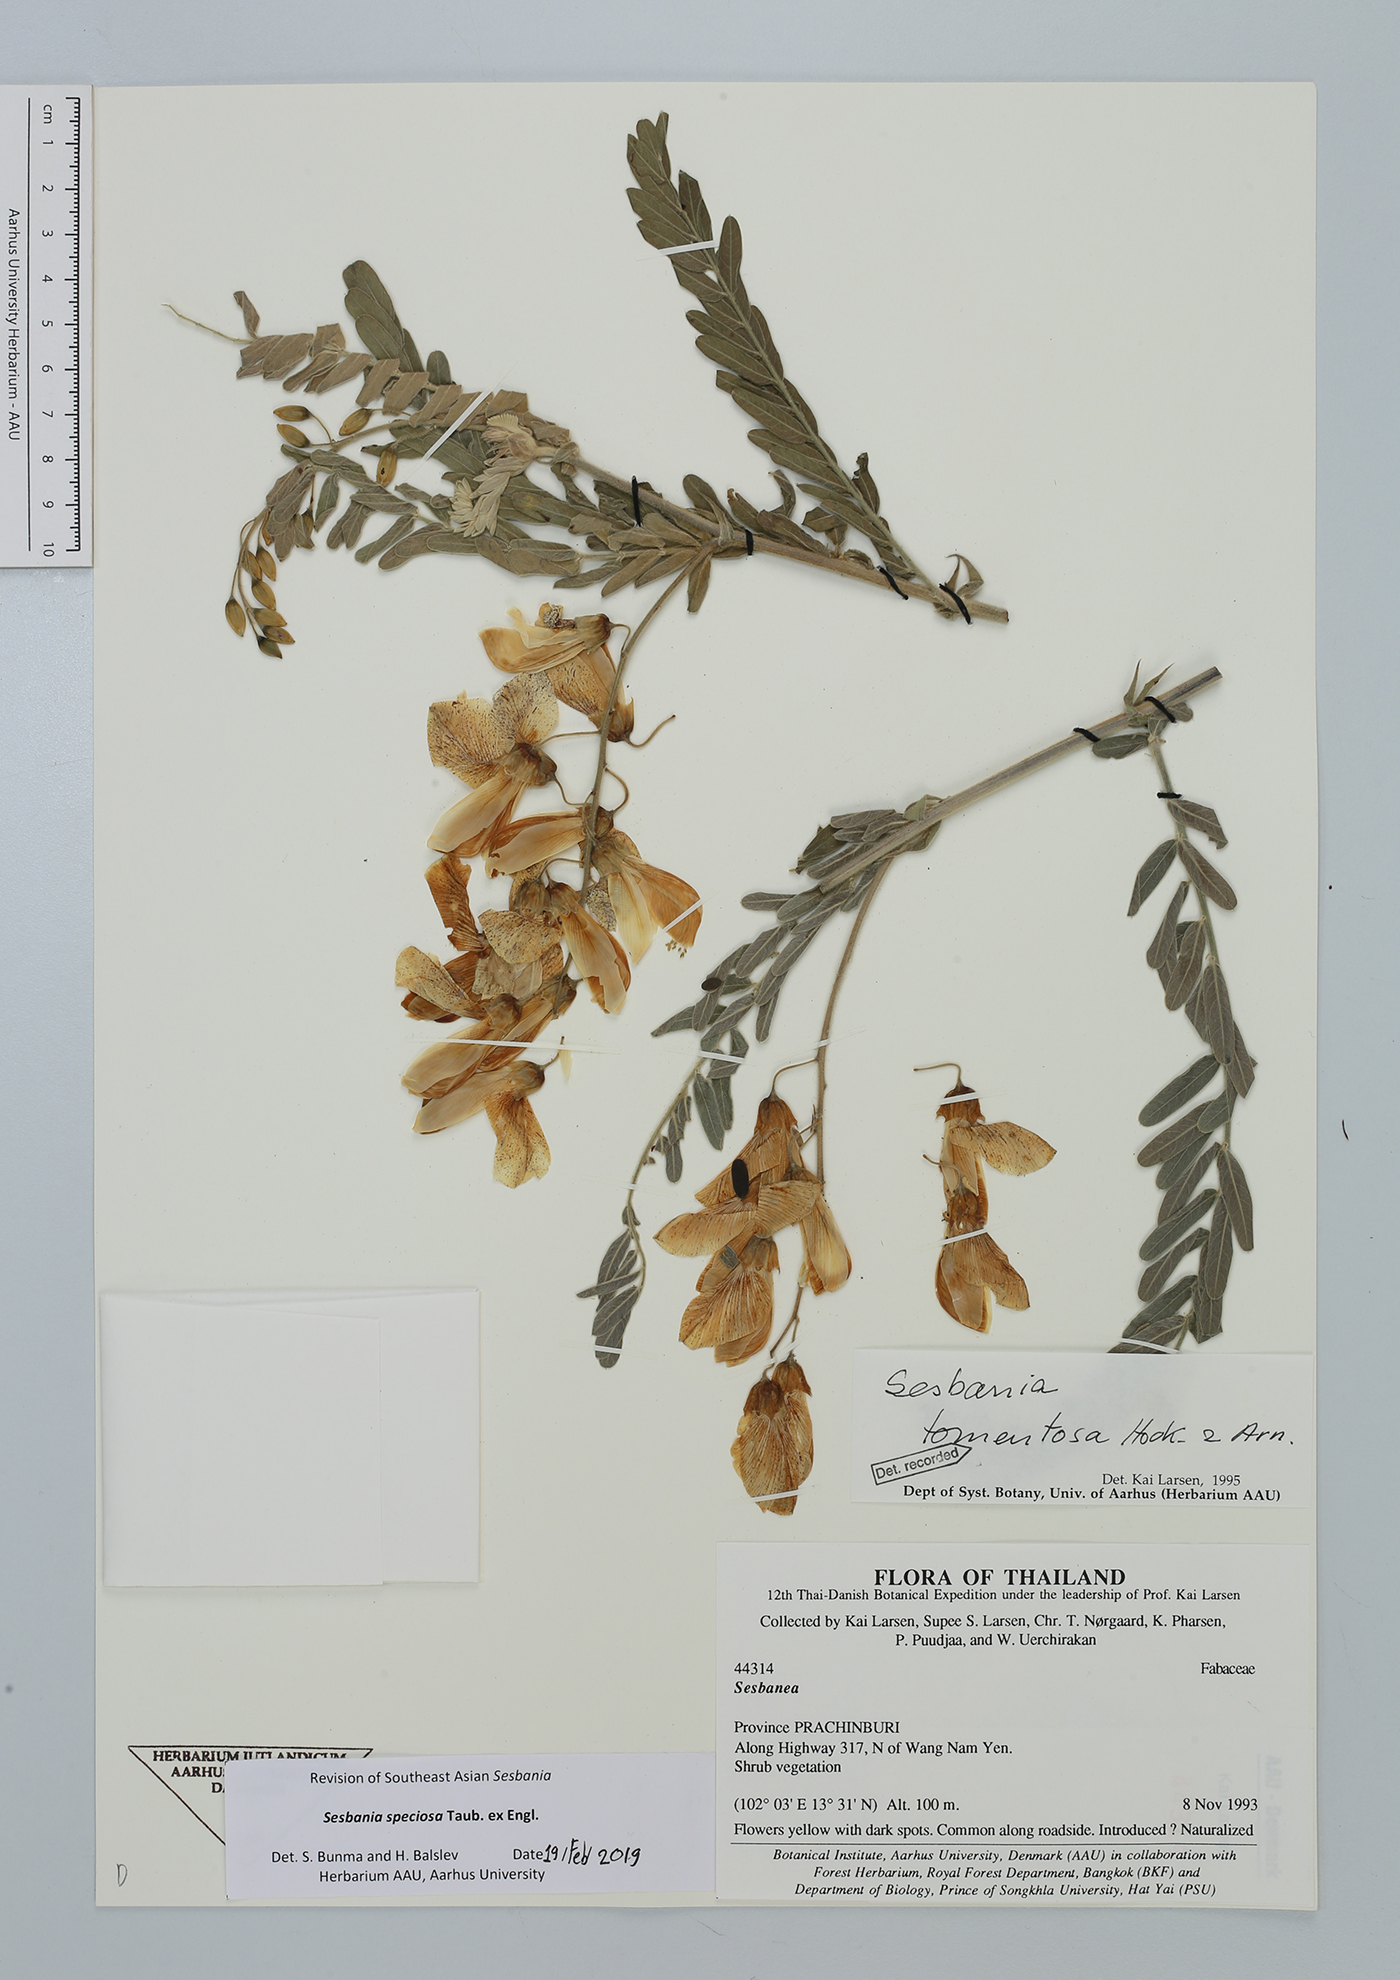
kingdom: Plantae
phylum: Tracheophyta
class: Magnoliopsida
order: Fabales
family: Fabaceae
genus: Sesbania
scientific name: Sesbania speciosa
